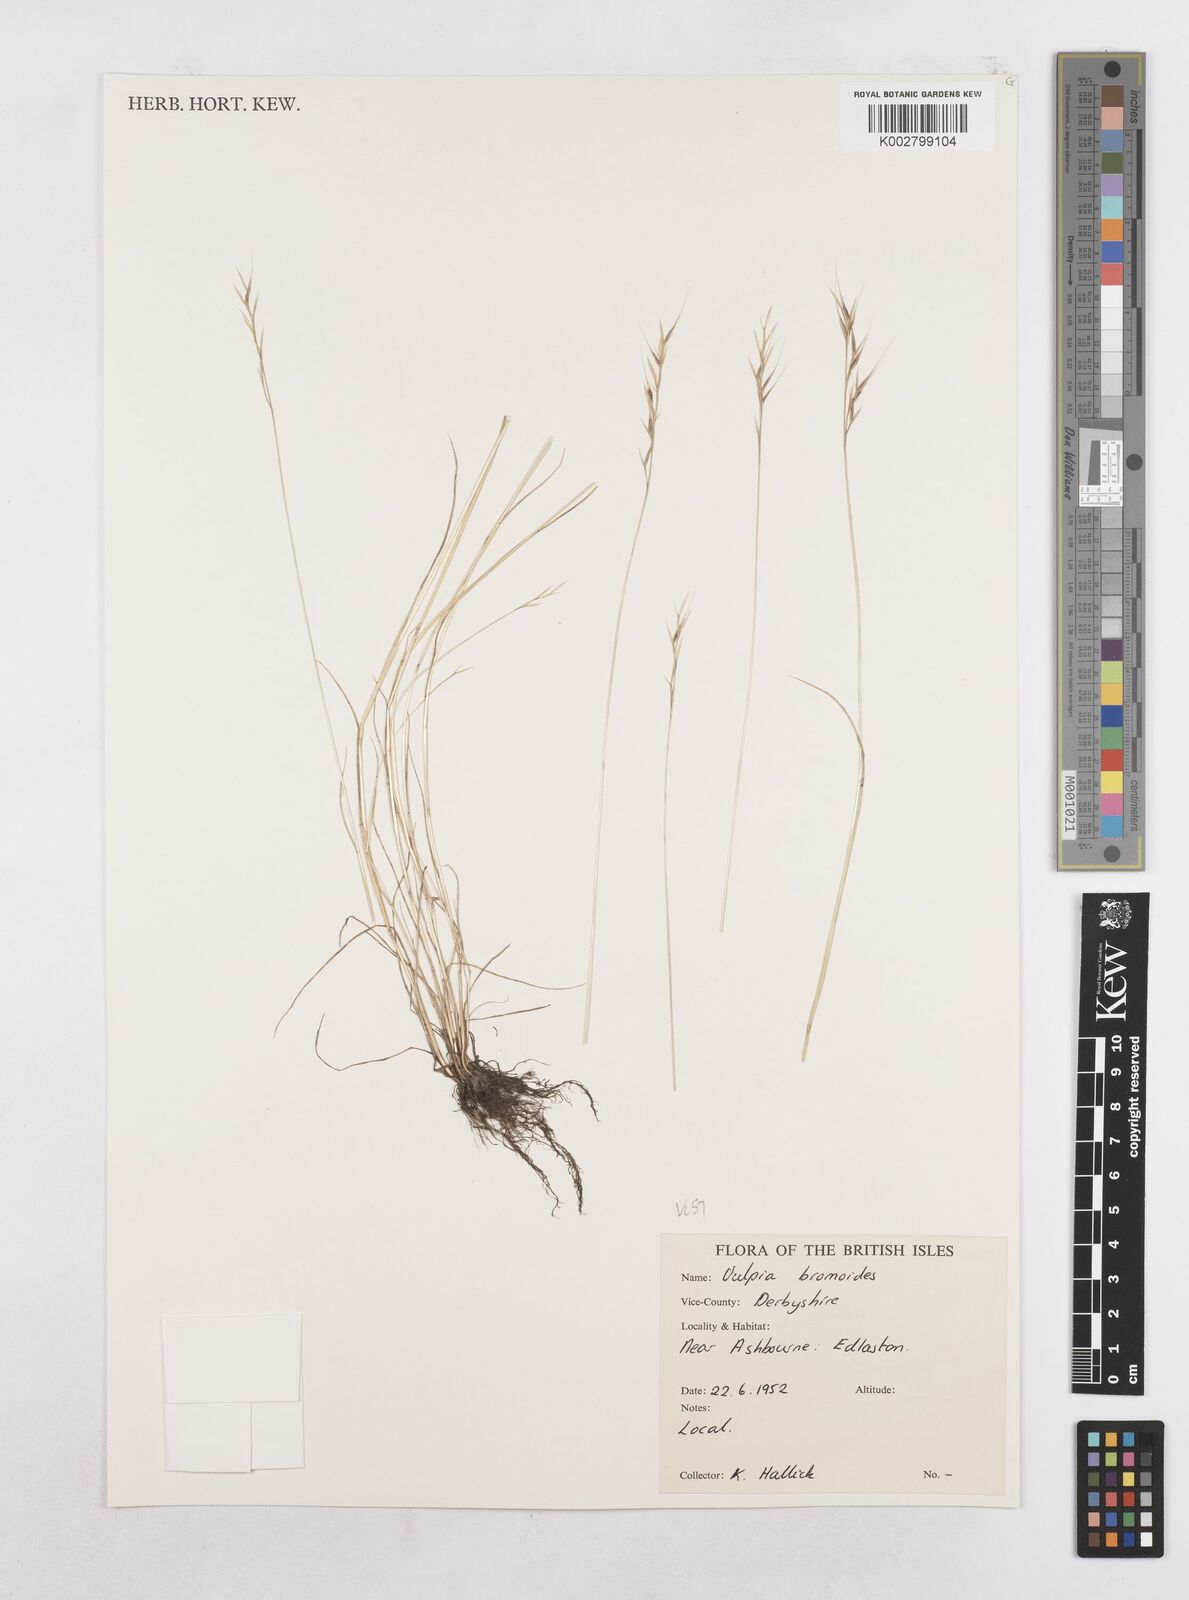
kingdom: Plantae
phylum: Tracheophyta
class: Liliopsida
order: Poales
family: Poaceae
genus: Festuca
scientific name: Festuca bromoides
